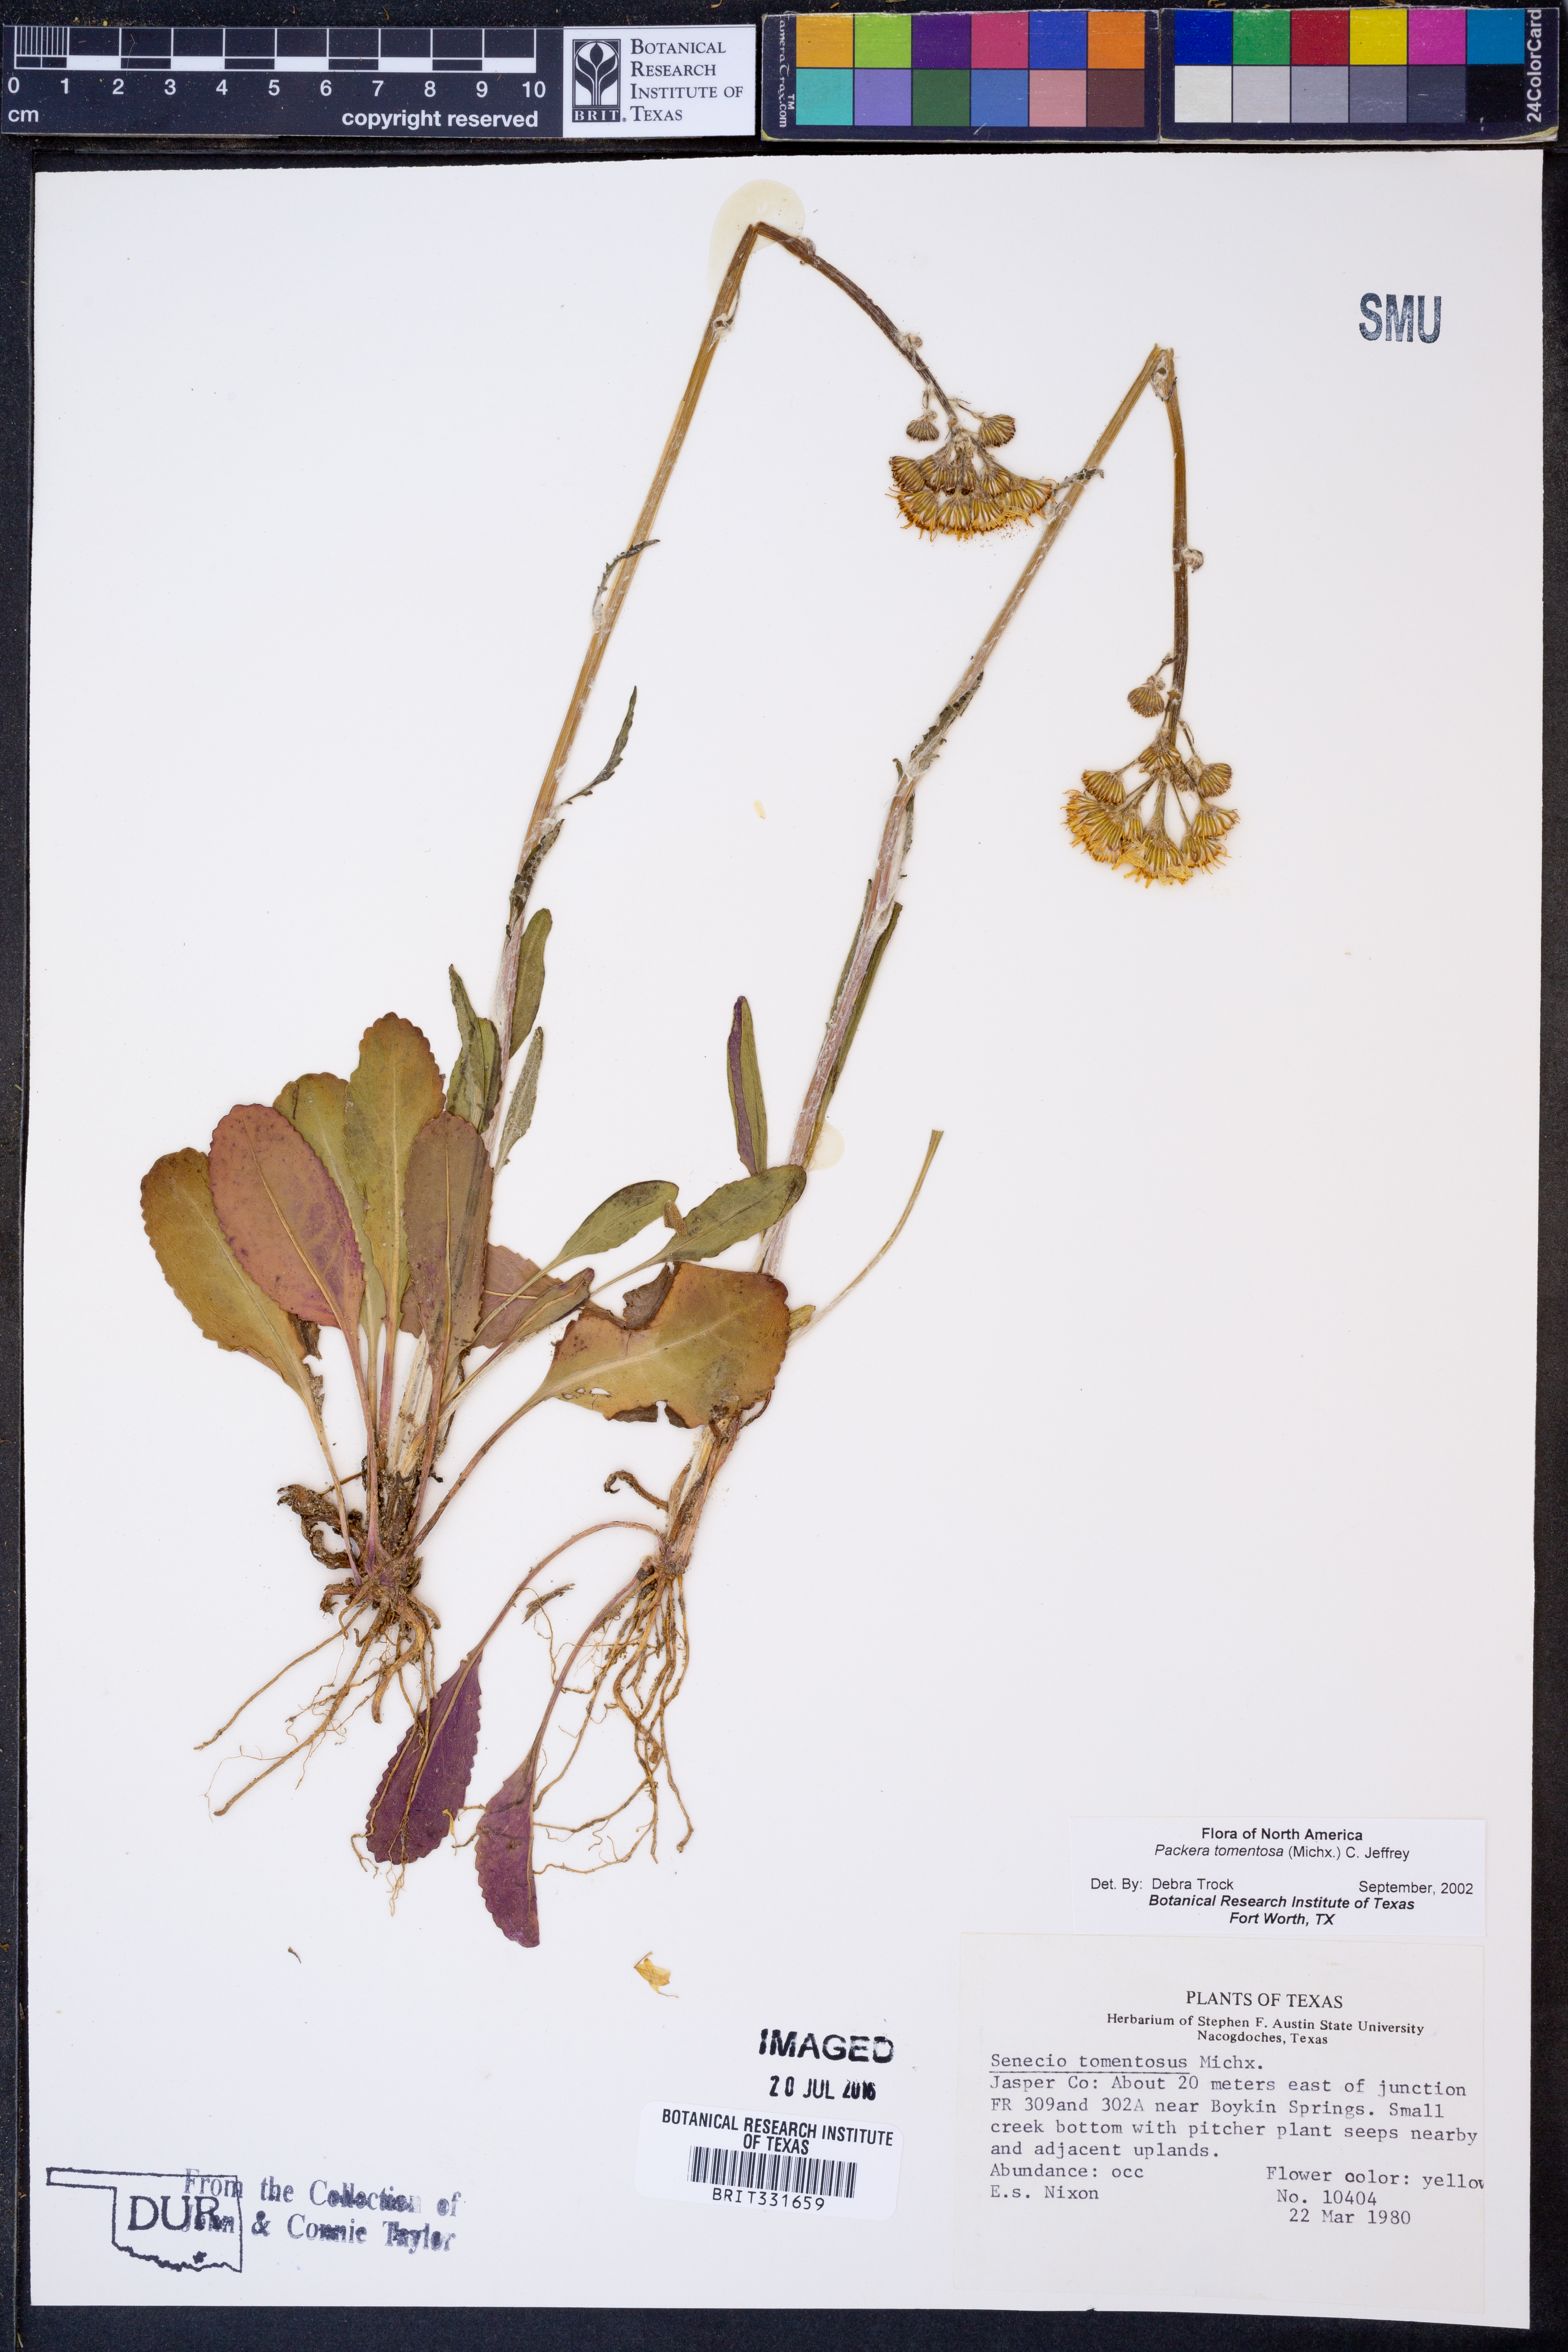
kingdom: Plantae
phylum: Tracheophyta
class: Magnoliopsida
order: Asterales
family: Asteraceae
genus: Packera
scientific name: Packera dubia
